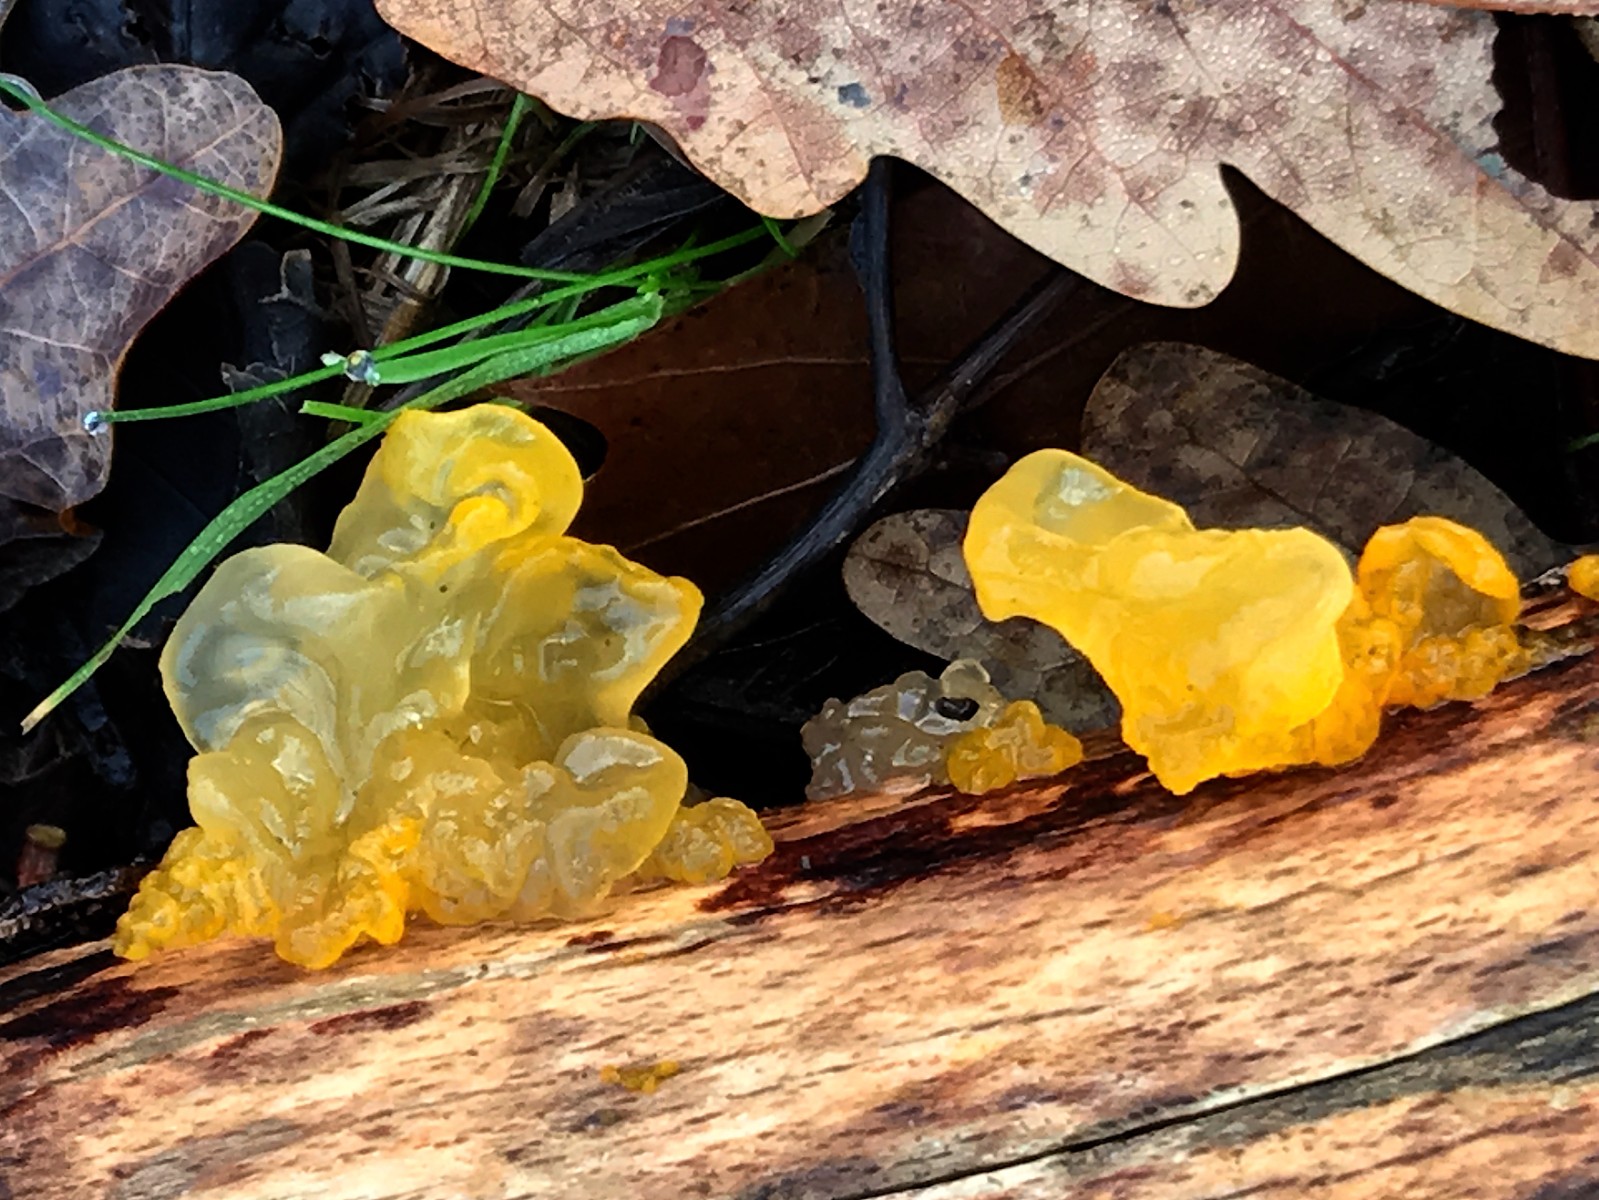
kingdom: Fungi
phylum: Basidiomycota
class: Tremellomycetes
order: Tremellales
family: Tremellaceae
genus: Tremella
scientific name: Tremella mesenterica
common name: gul bævresvamp
